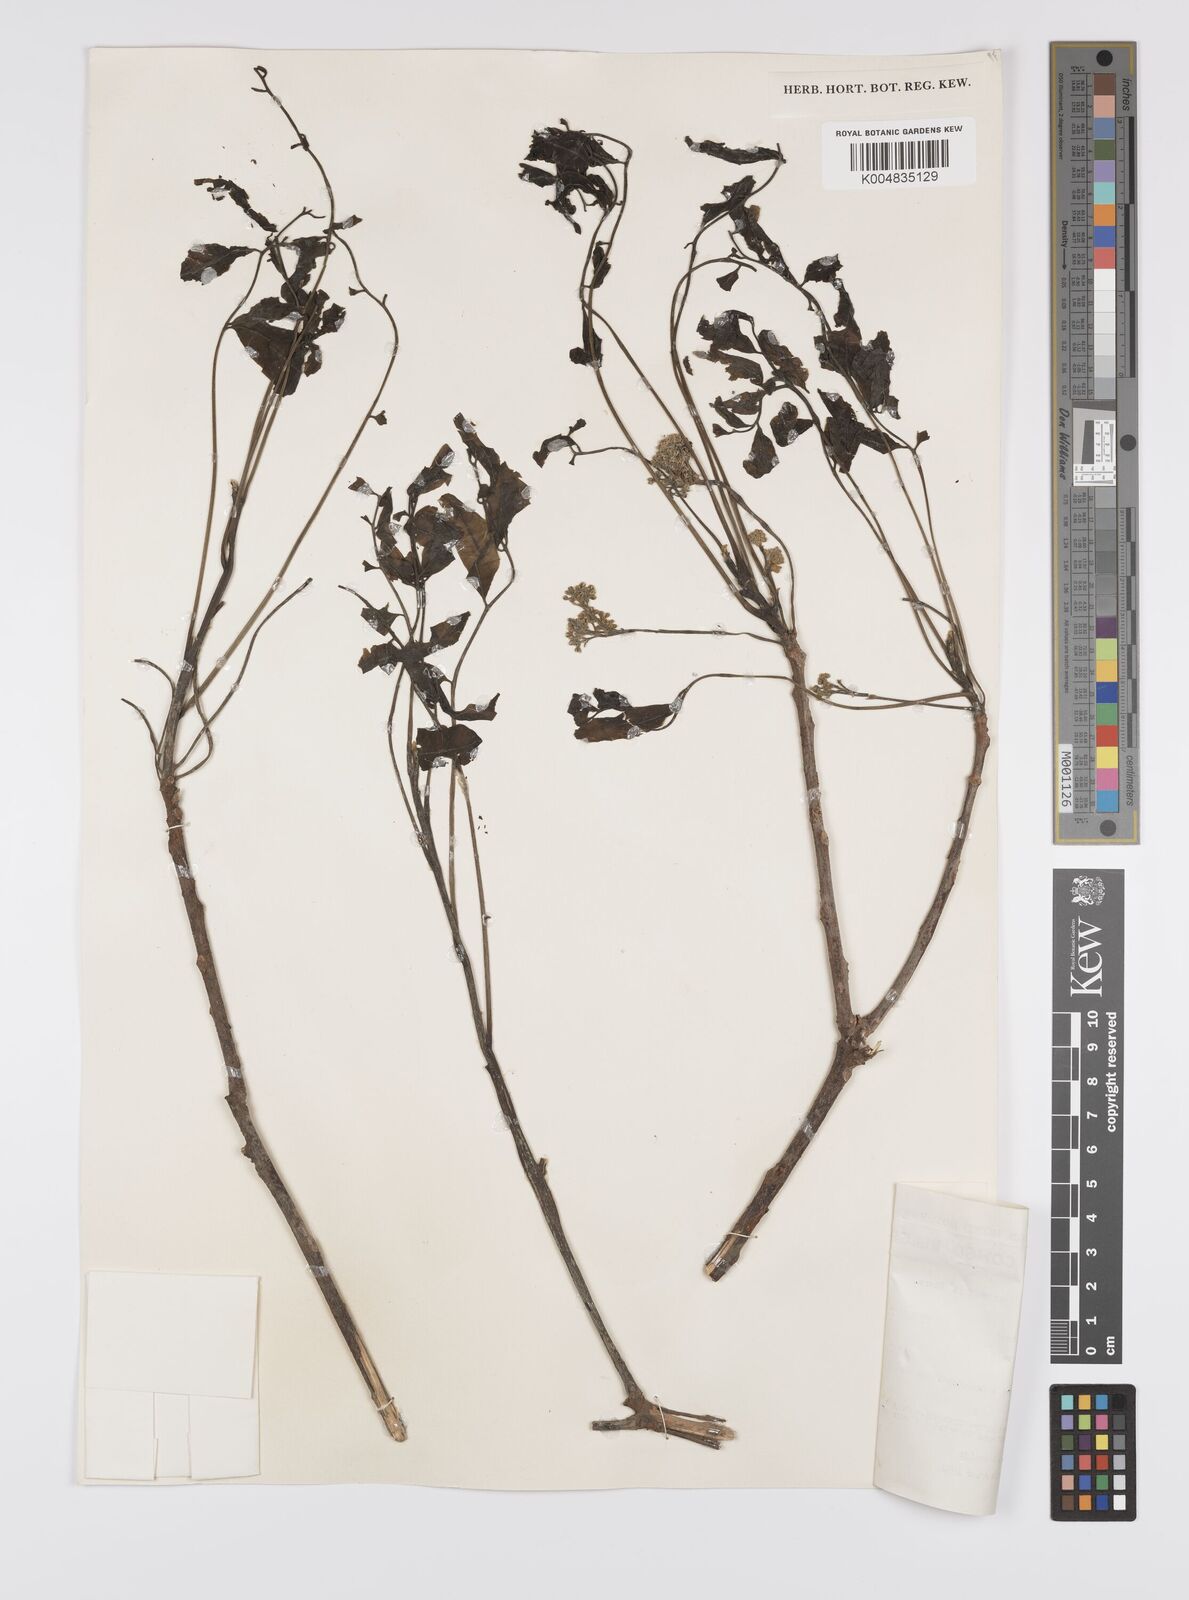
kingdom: Plantae
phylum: Tracheophyta
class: Magnoliopsida
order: Sapindales
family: Sapindaceae
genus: Zanha
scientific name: Zanha golungensis
